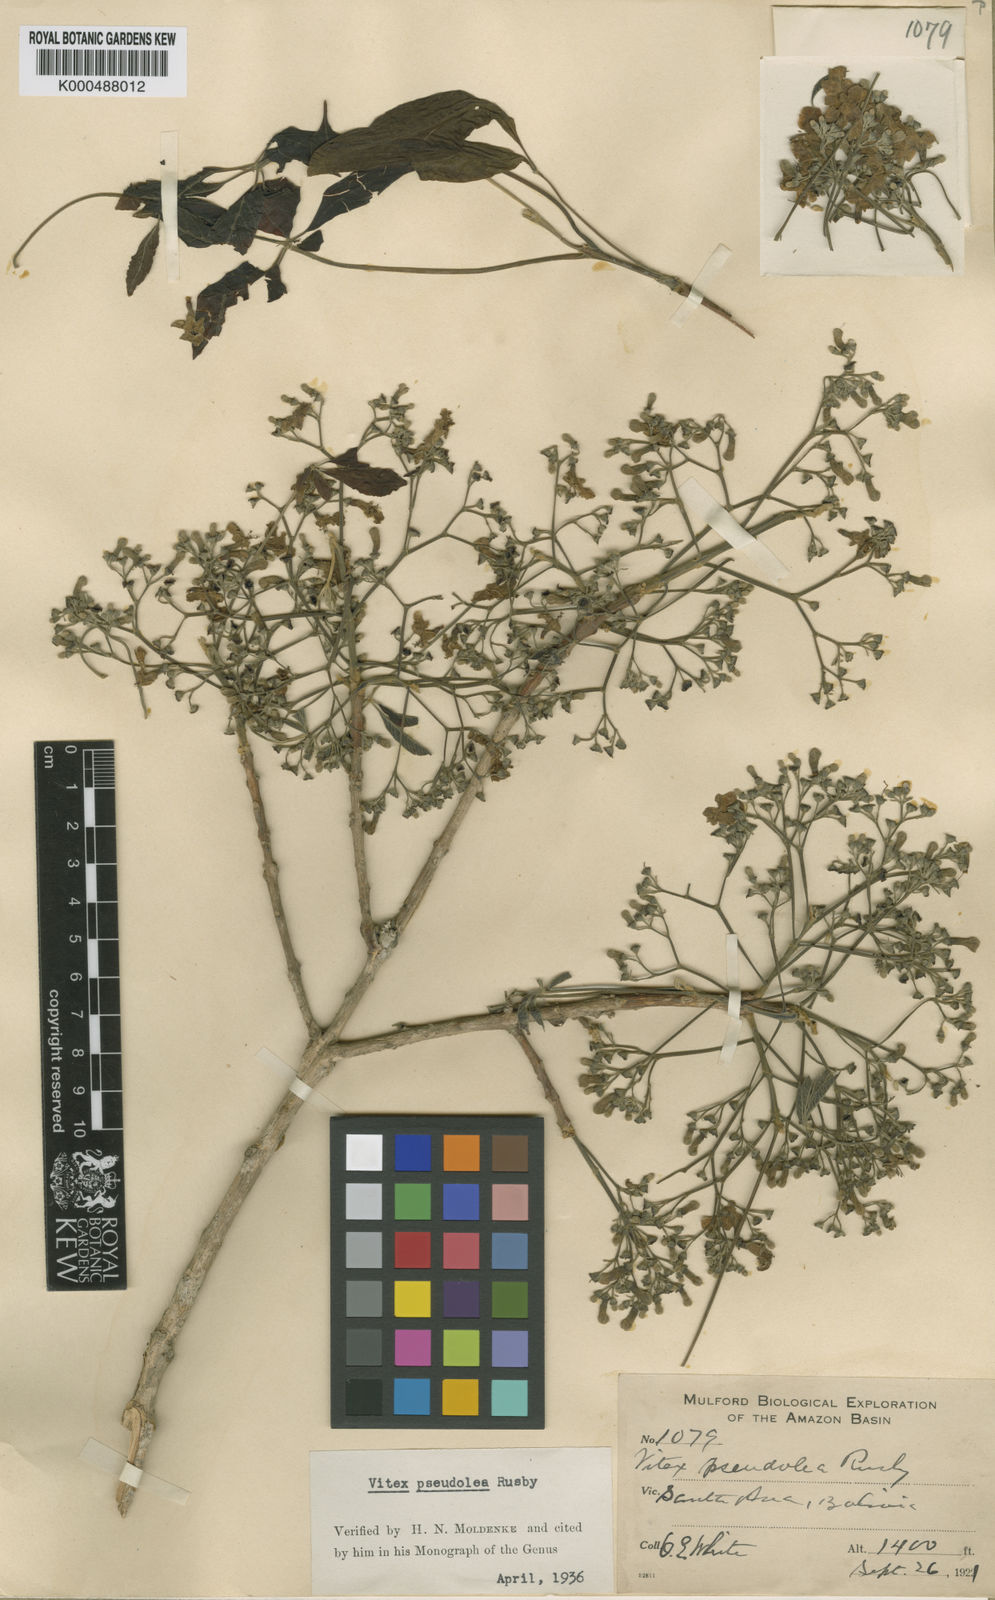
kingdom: Plantae
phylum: Tracheophyta
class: Magnoliopsida
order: Lamiales
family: Lamiaceae
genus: Vitex
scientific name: Vitex pseudolea
